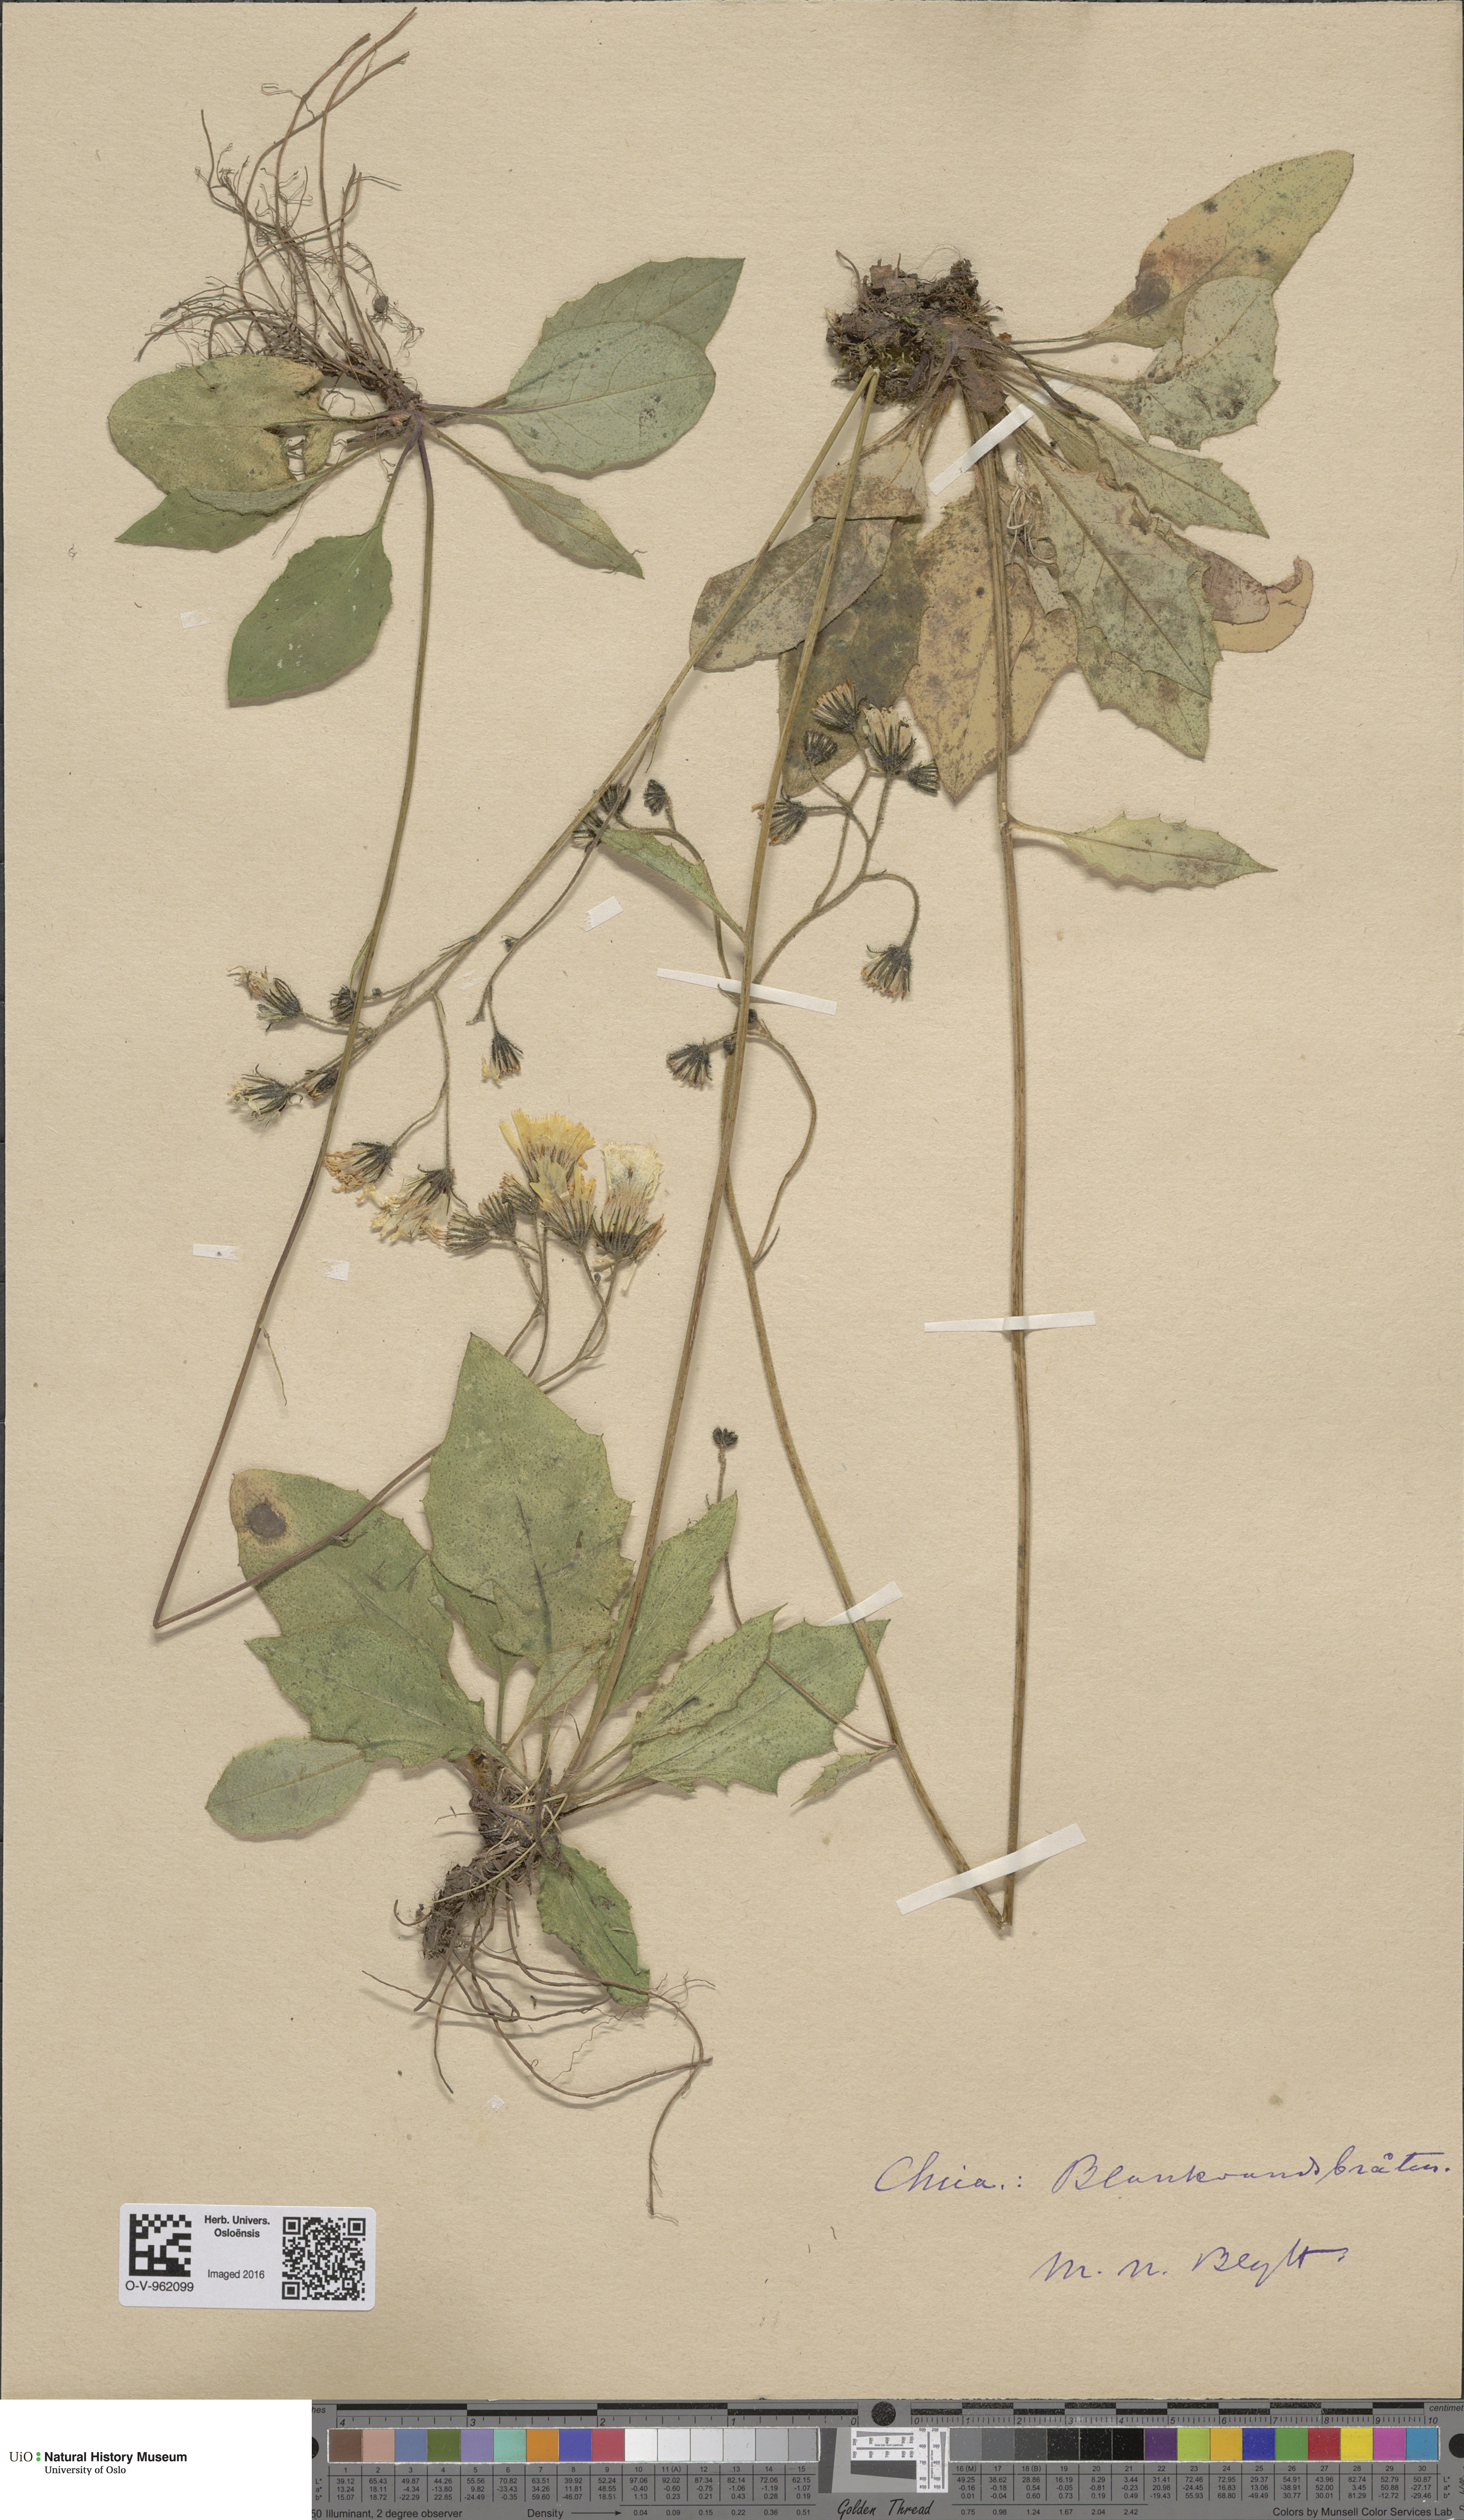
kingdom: Plantae
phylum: Tracheophyta
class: Magnoliopsida
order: Asterales
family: Asteraceae
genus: Hieracium
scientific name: Hieracium
